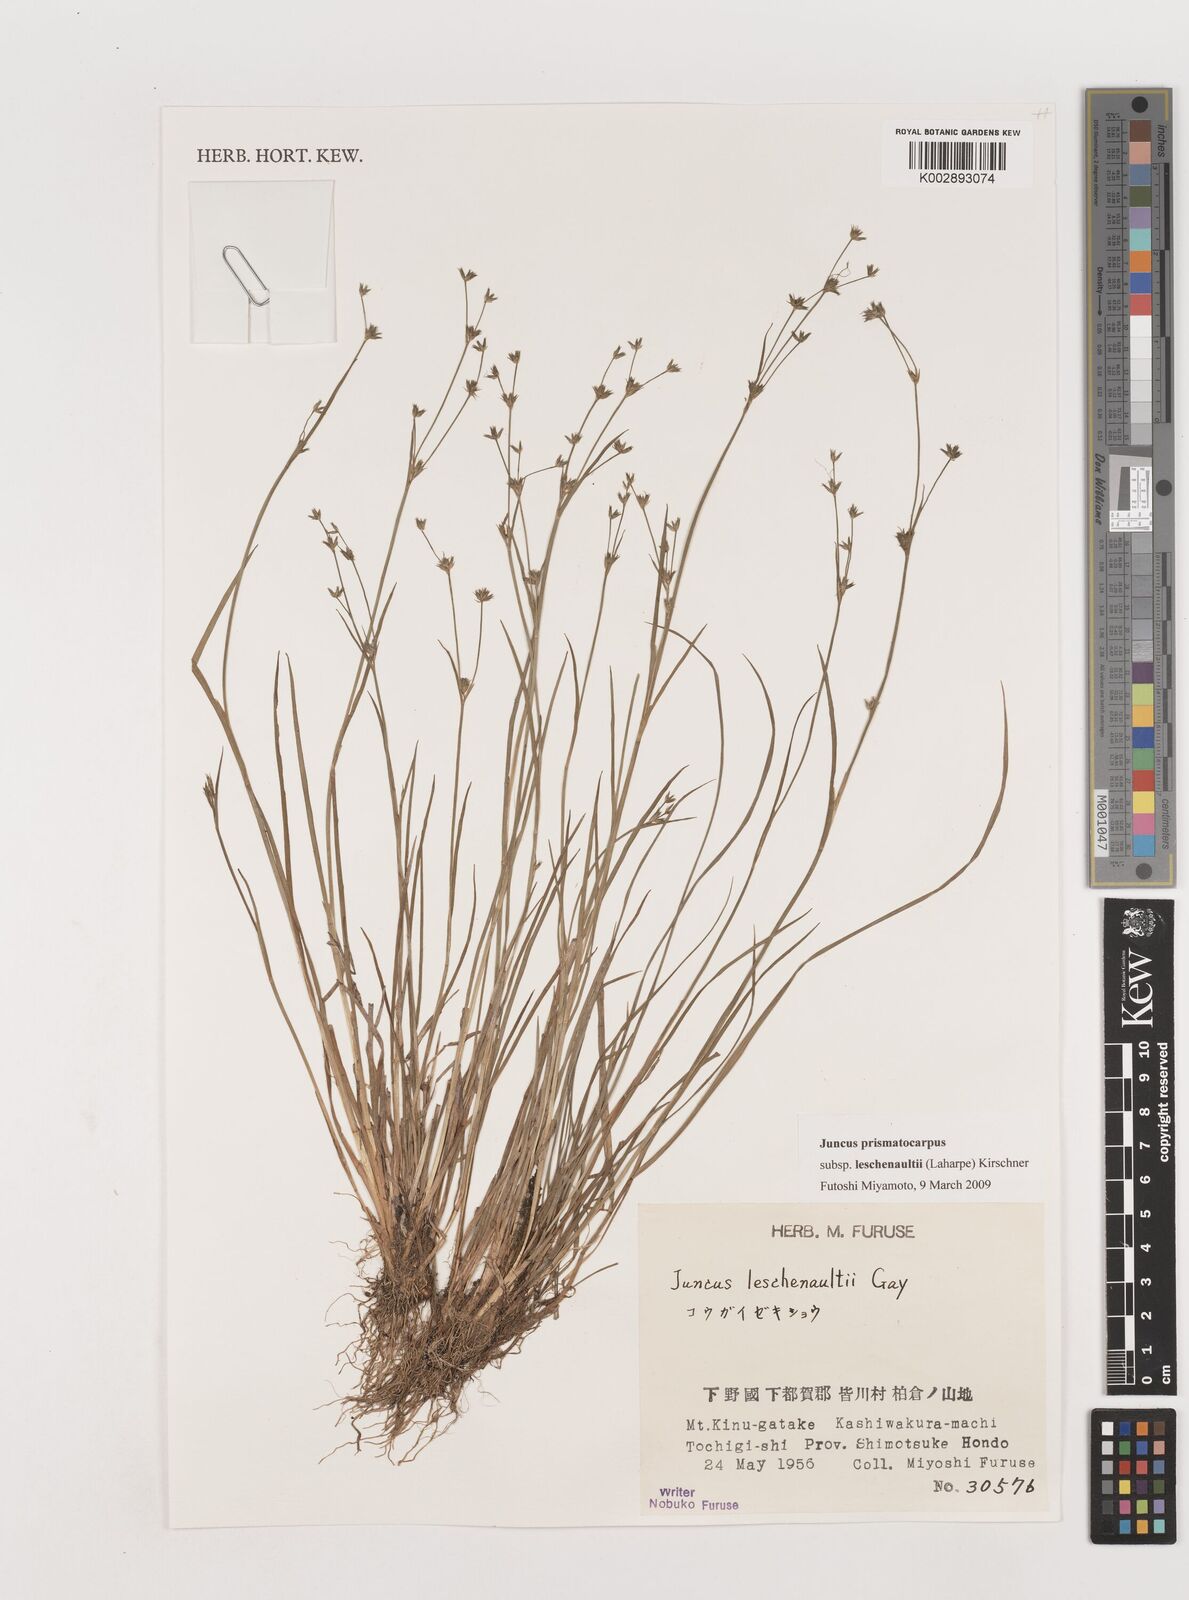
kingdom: Plantae
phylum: Tracheophyta
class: Liliopsida
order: Poales
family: Juncaceae
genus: Juncus
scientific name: Juncus prismatocarpus
